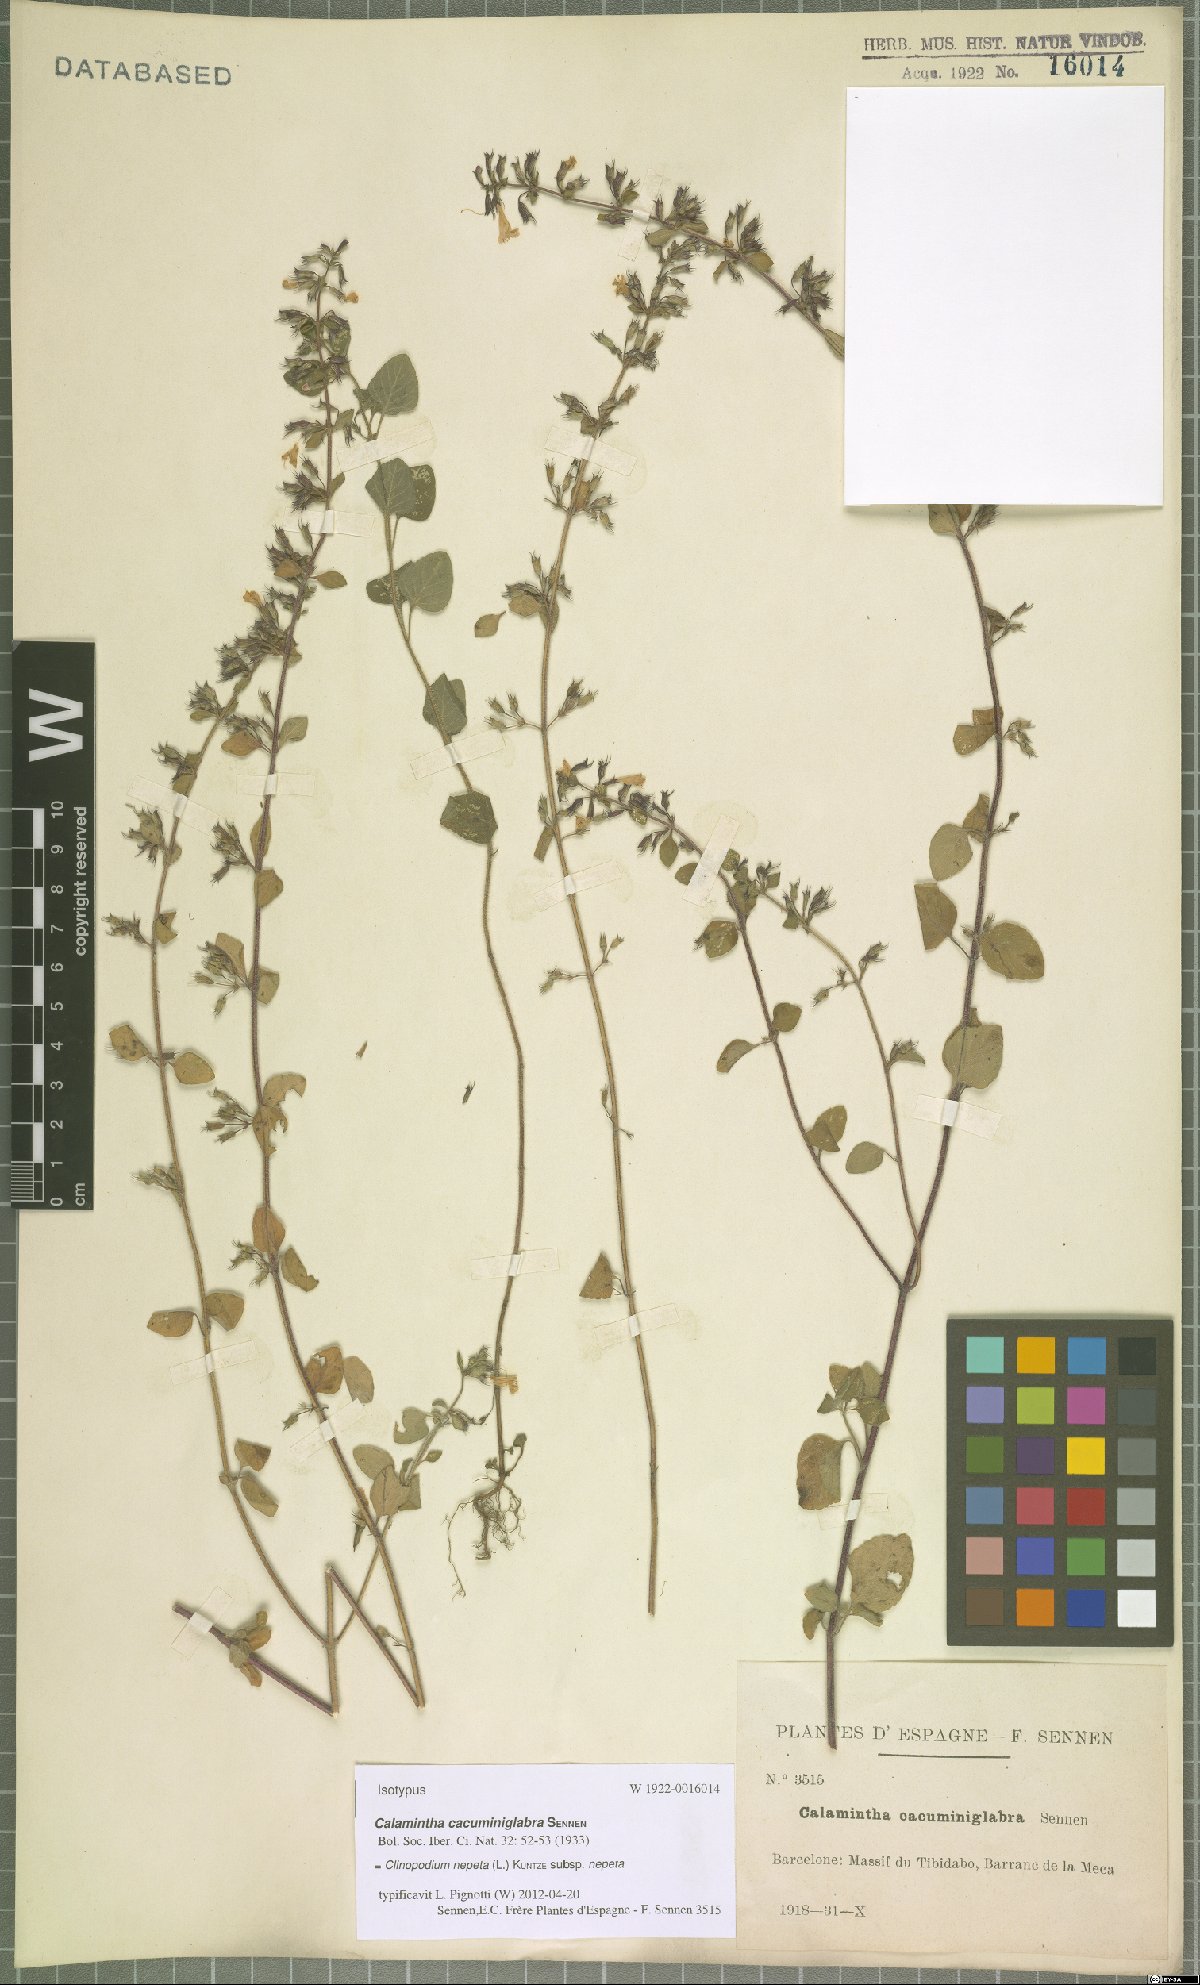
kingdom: Plantae
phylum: Tracheophyta
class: Magnoliopsida
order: Lamiales
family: Lamiaceae
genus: Clinopodium
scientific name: Clinopodium nepeta
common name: Lesser calamint
